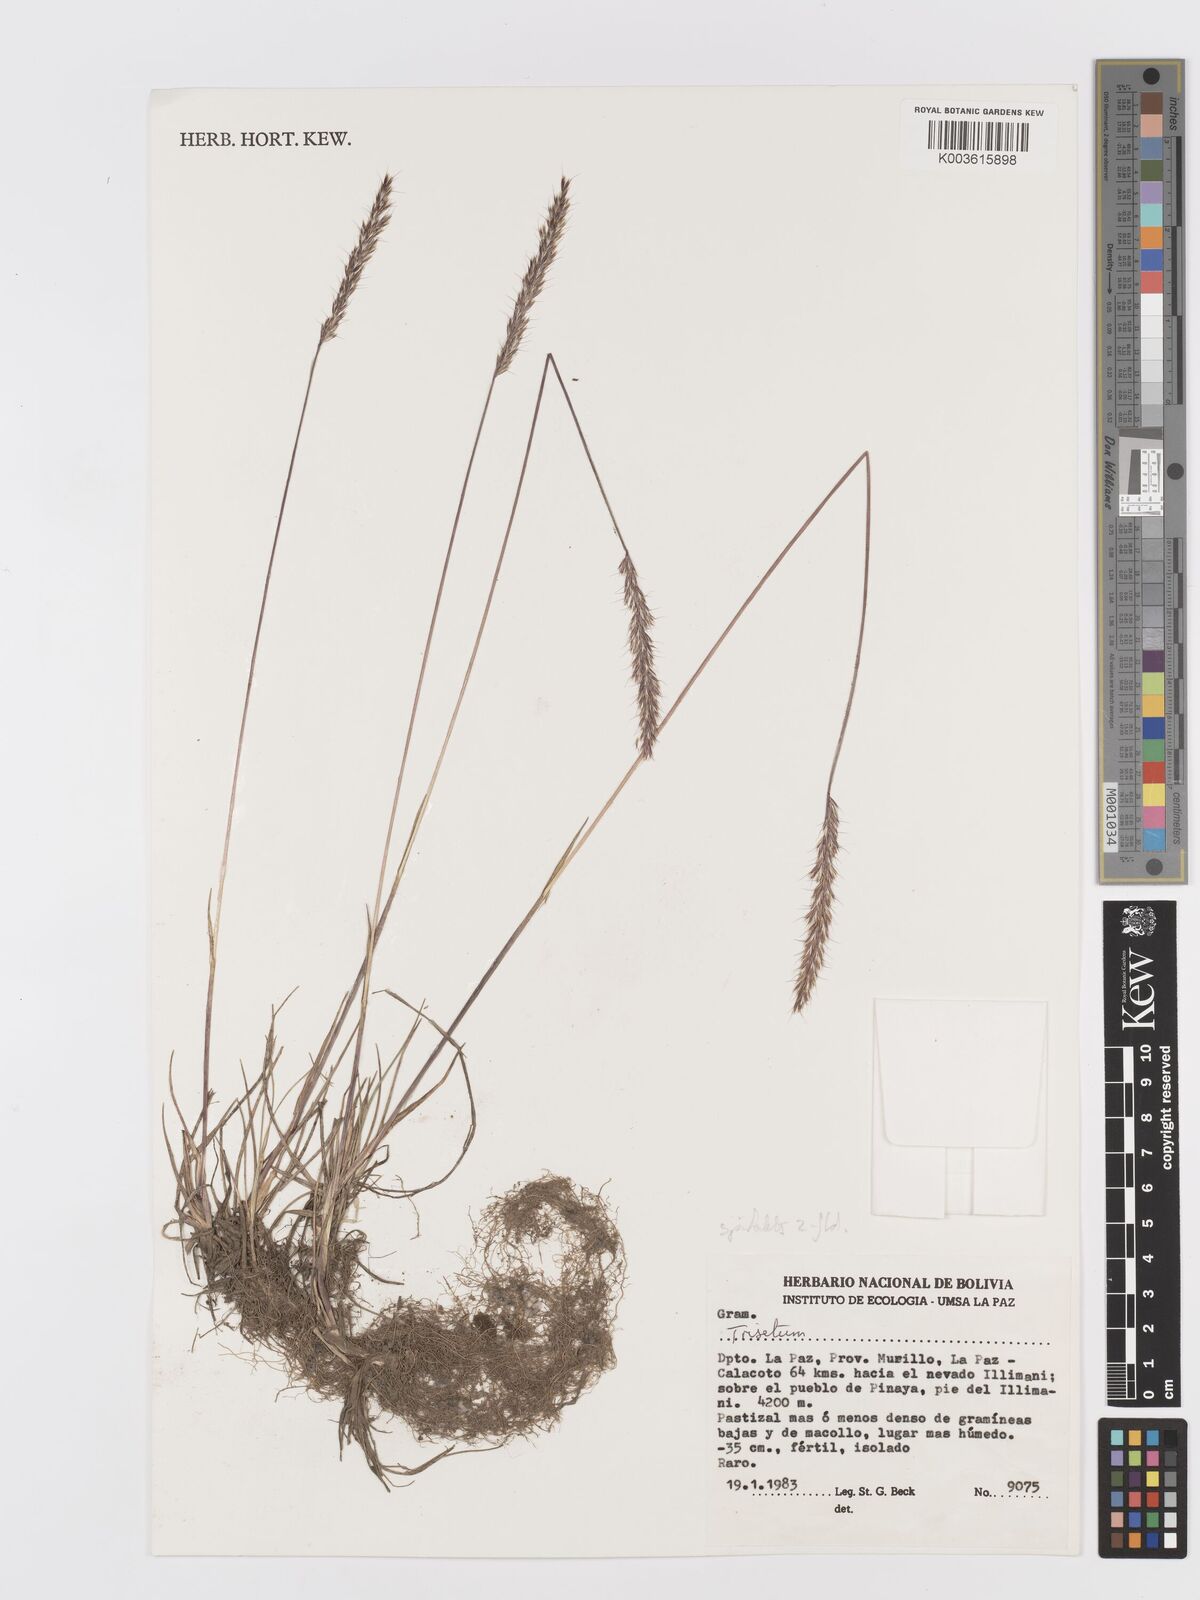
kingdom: Plantae
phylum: Tracheophyta
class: Liliopsida
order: Poales
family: Poaceae
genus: Koeleria
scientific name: Koeleria spicata
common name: Mountain trisetum
